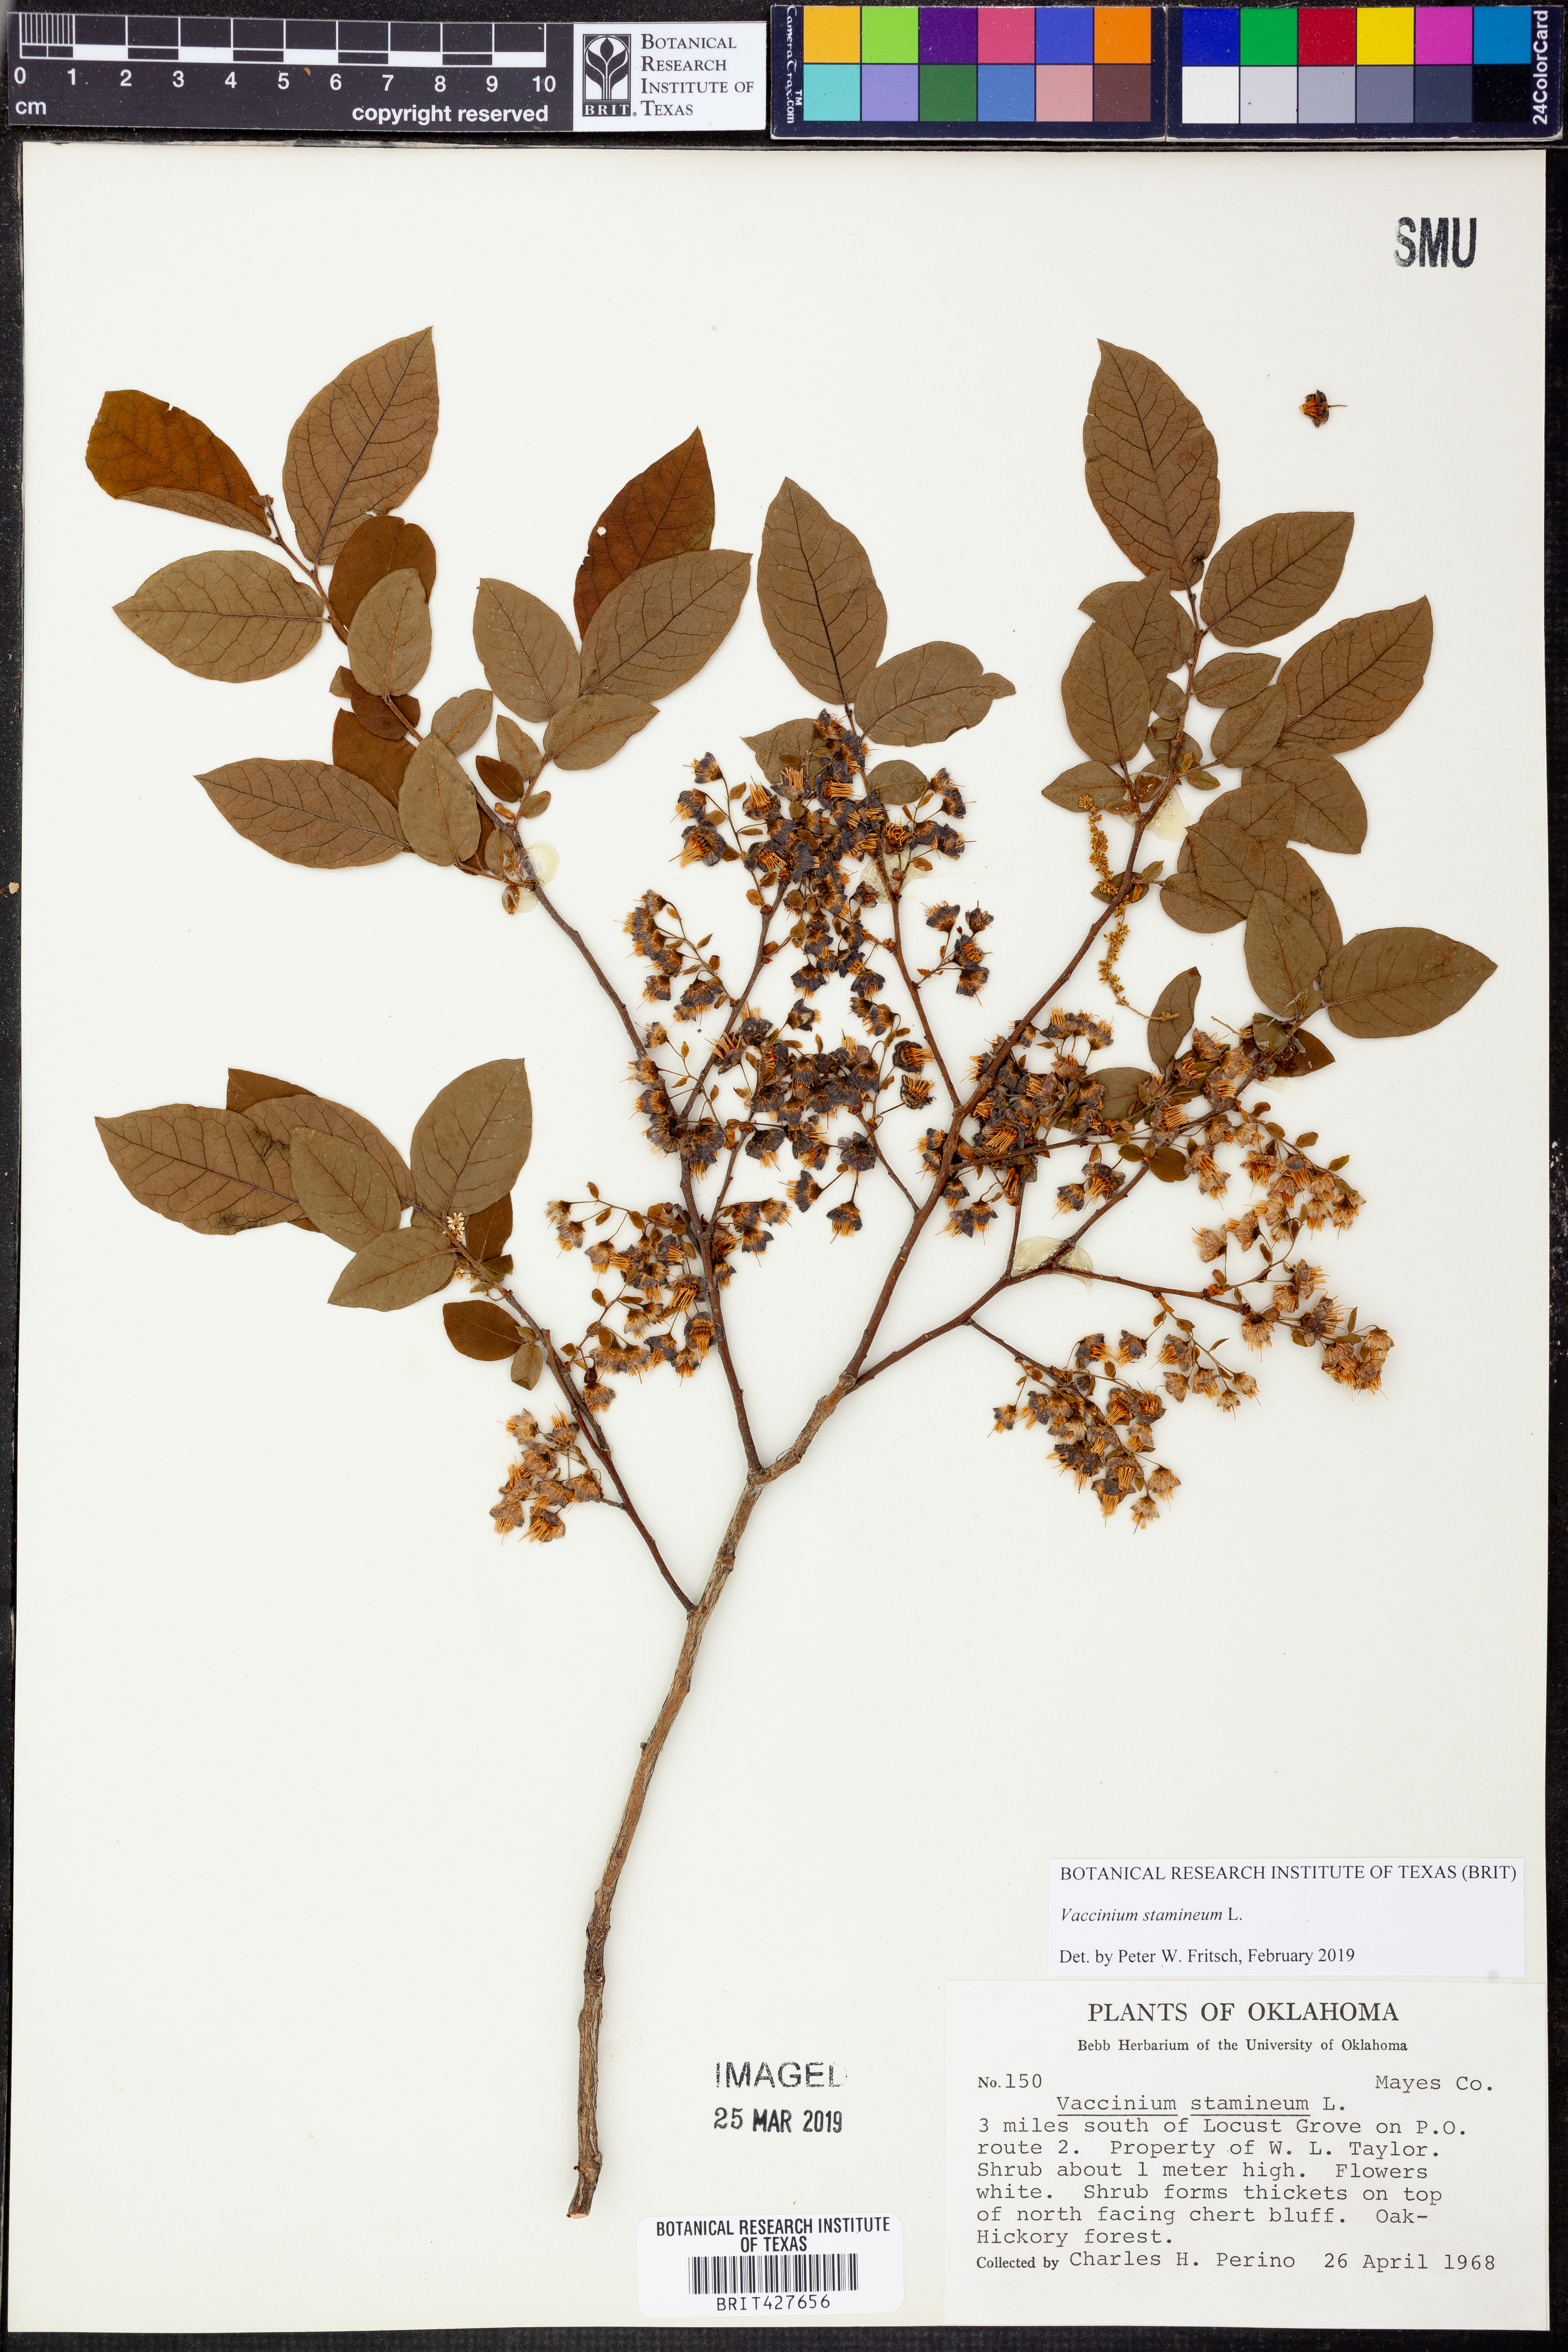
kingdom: Plantae
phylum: Tracheophyta
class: Magnoliopsida
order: Ericales
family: Ericaceae
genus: Vaccinium
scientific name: Vaccinium stamineum
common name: Deerberry
